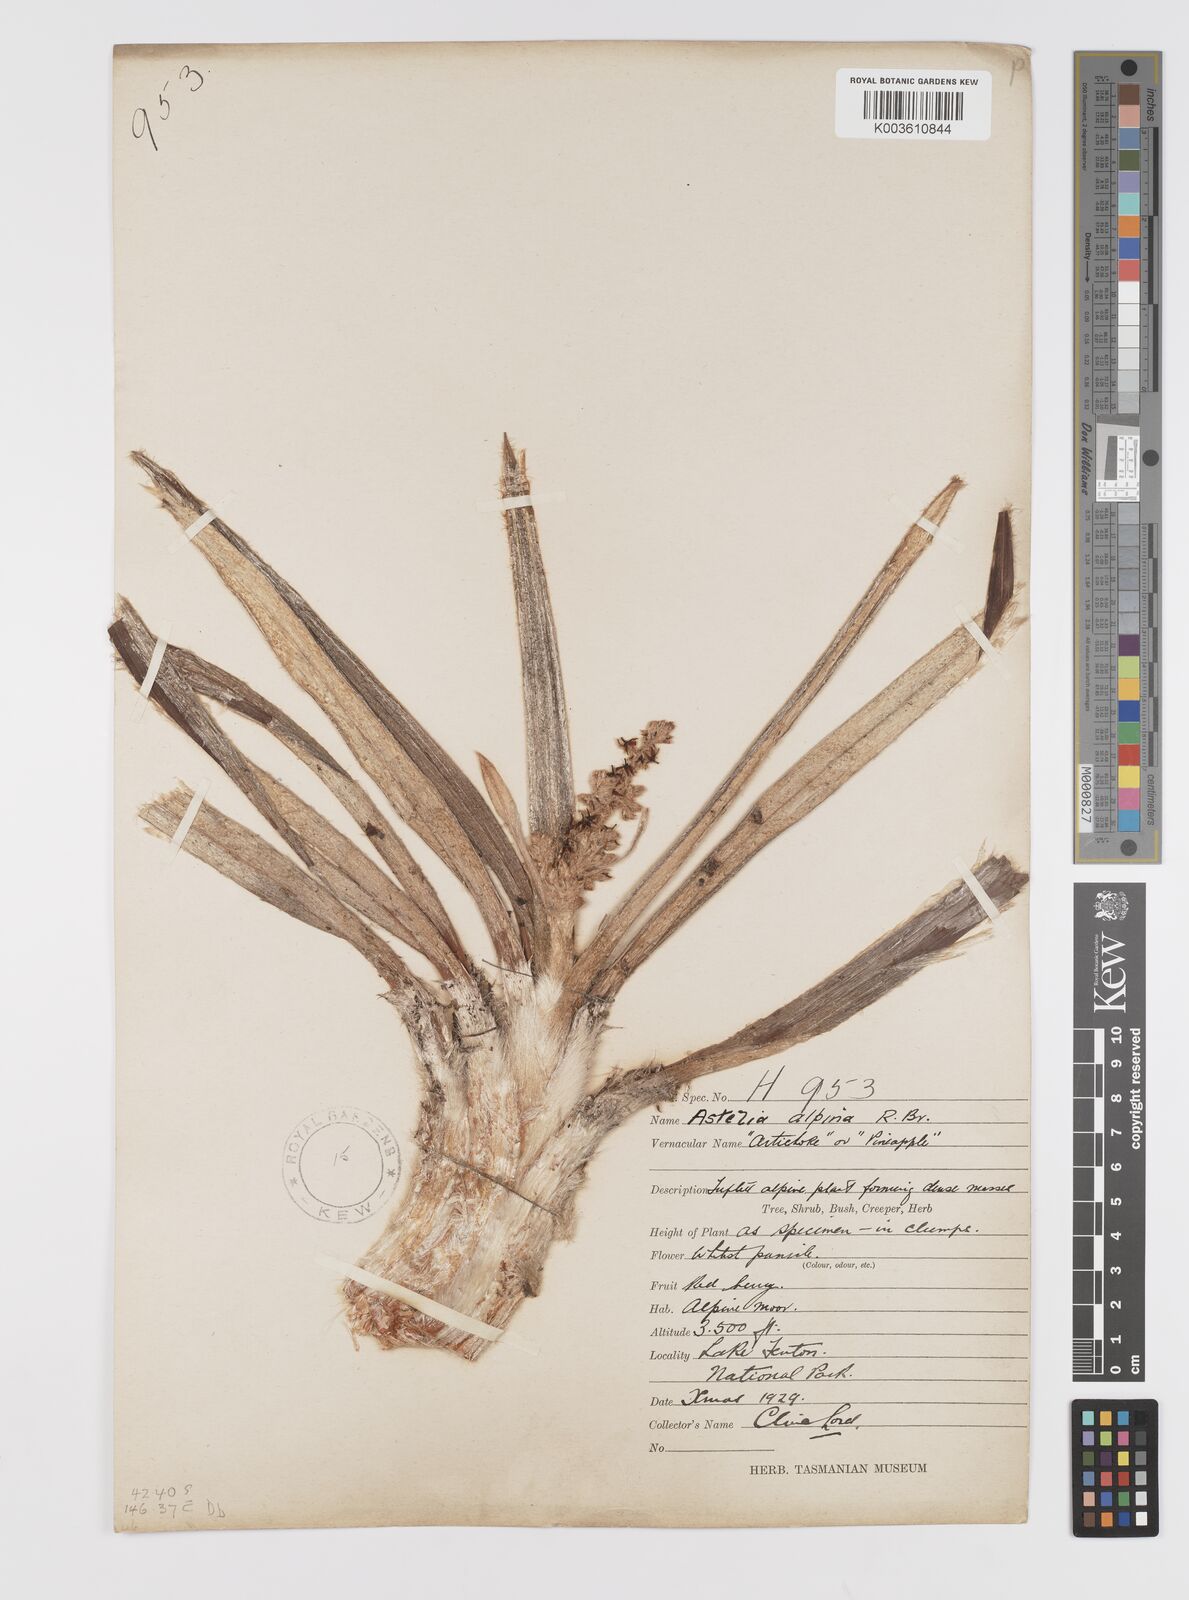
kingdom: Plantae
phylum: Tracheophyta
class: Liliopsida
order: Asparagales
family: Asteliaceae
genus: Astelia
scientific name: Astelia alpina
